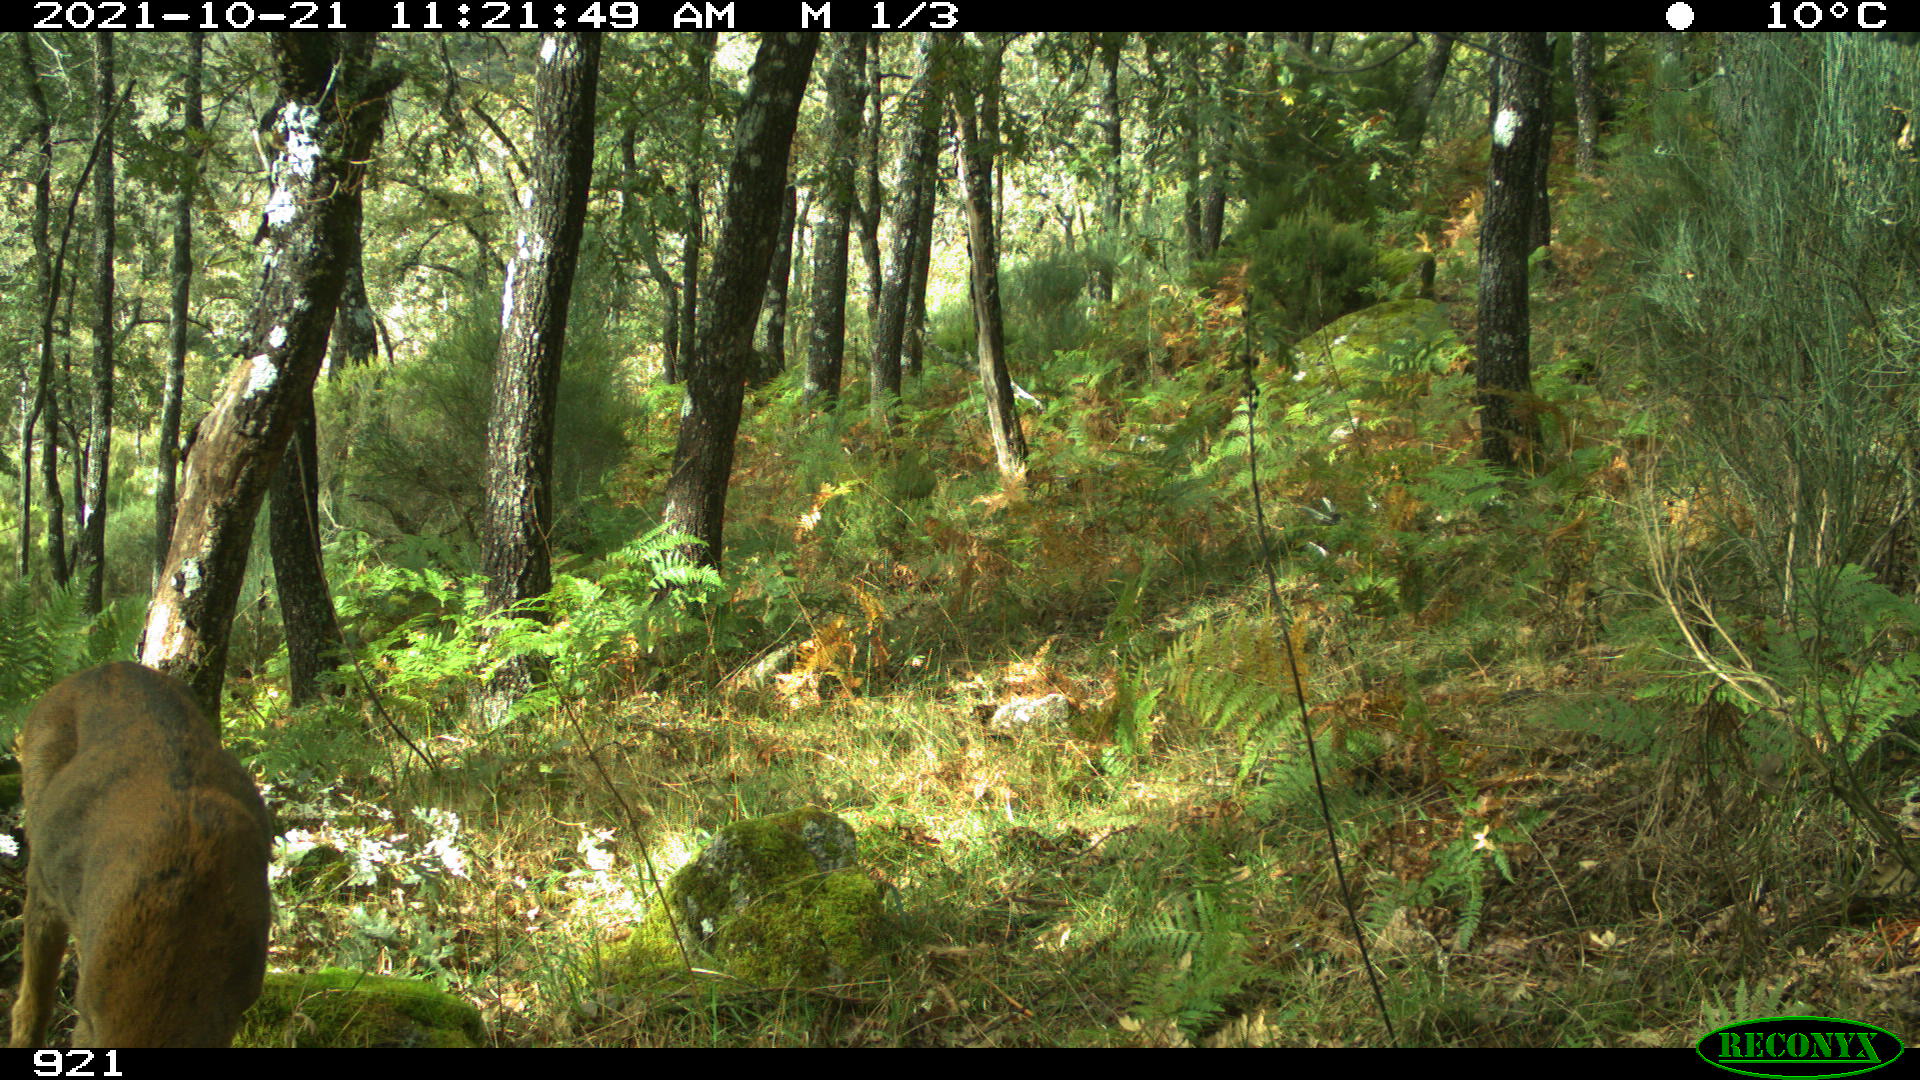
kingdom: Animalia
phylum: Chordata
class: Mammalia
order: Artiodactyla
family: Cervidae
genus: Capreolus
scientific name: Capreolus capreolus
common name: Western roe deer
